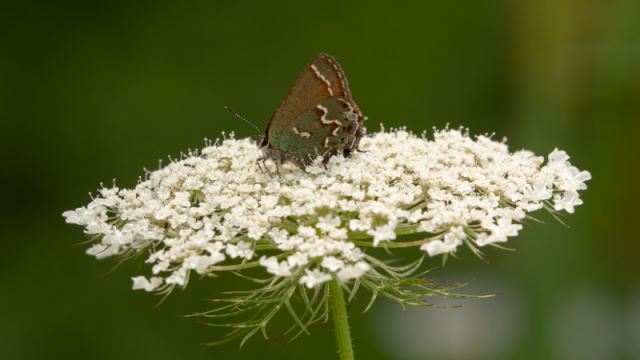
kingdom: Animalia
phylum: Arthropoda
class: Insecta
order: Lepidoptera
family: Lycaenidae
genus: Mitoura
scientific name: Mitoura gryneus
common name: Juniper Hairstreak
